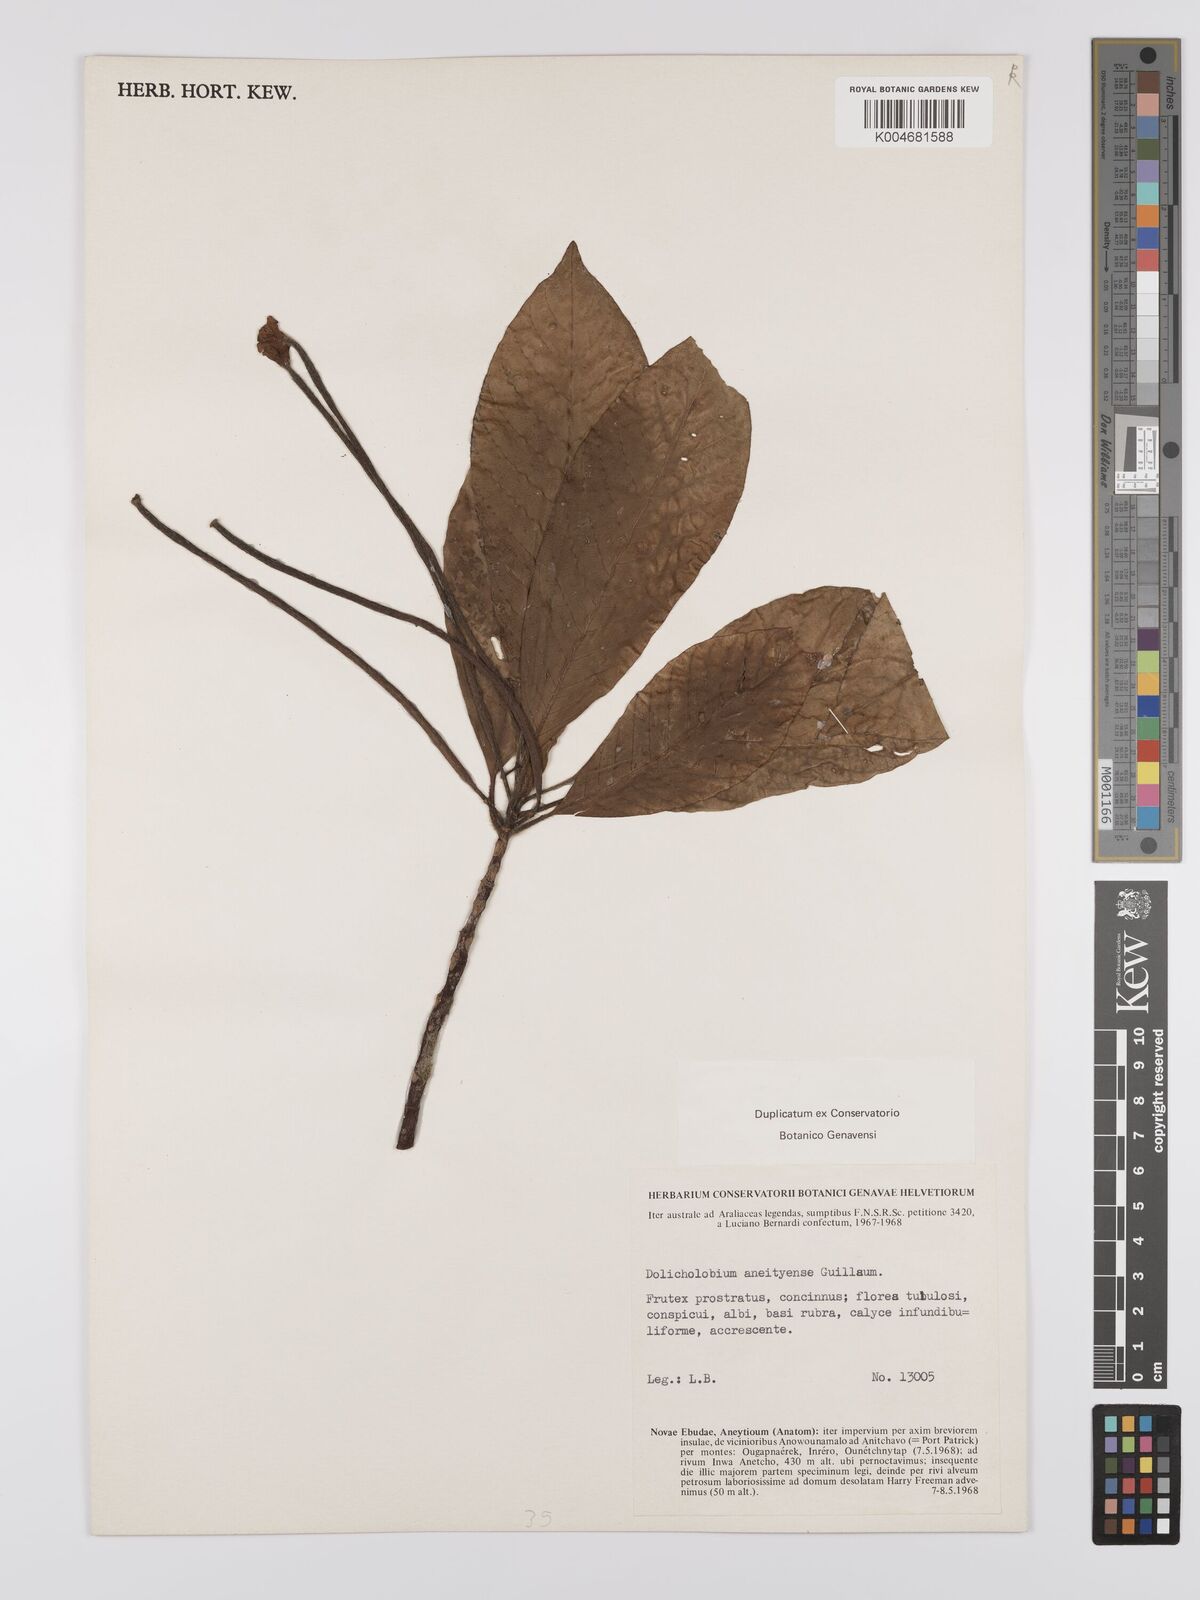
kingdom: Plantae
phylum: Tracheophyta
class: Magnoliopsida
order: Gentianales
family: Rubiaceae
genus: Dolicholobium
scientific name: Dolicholobium oblongifolium
